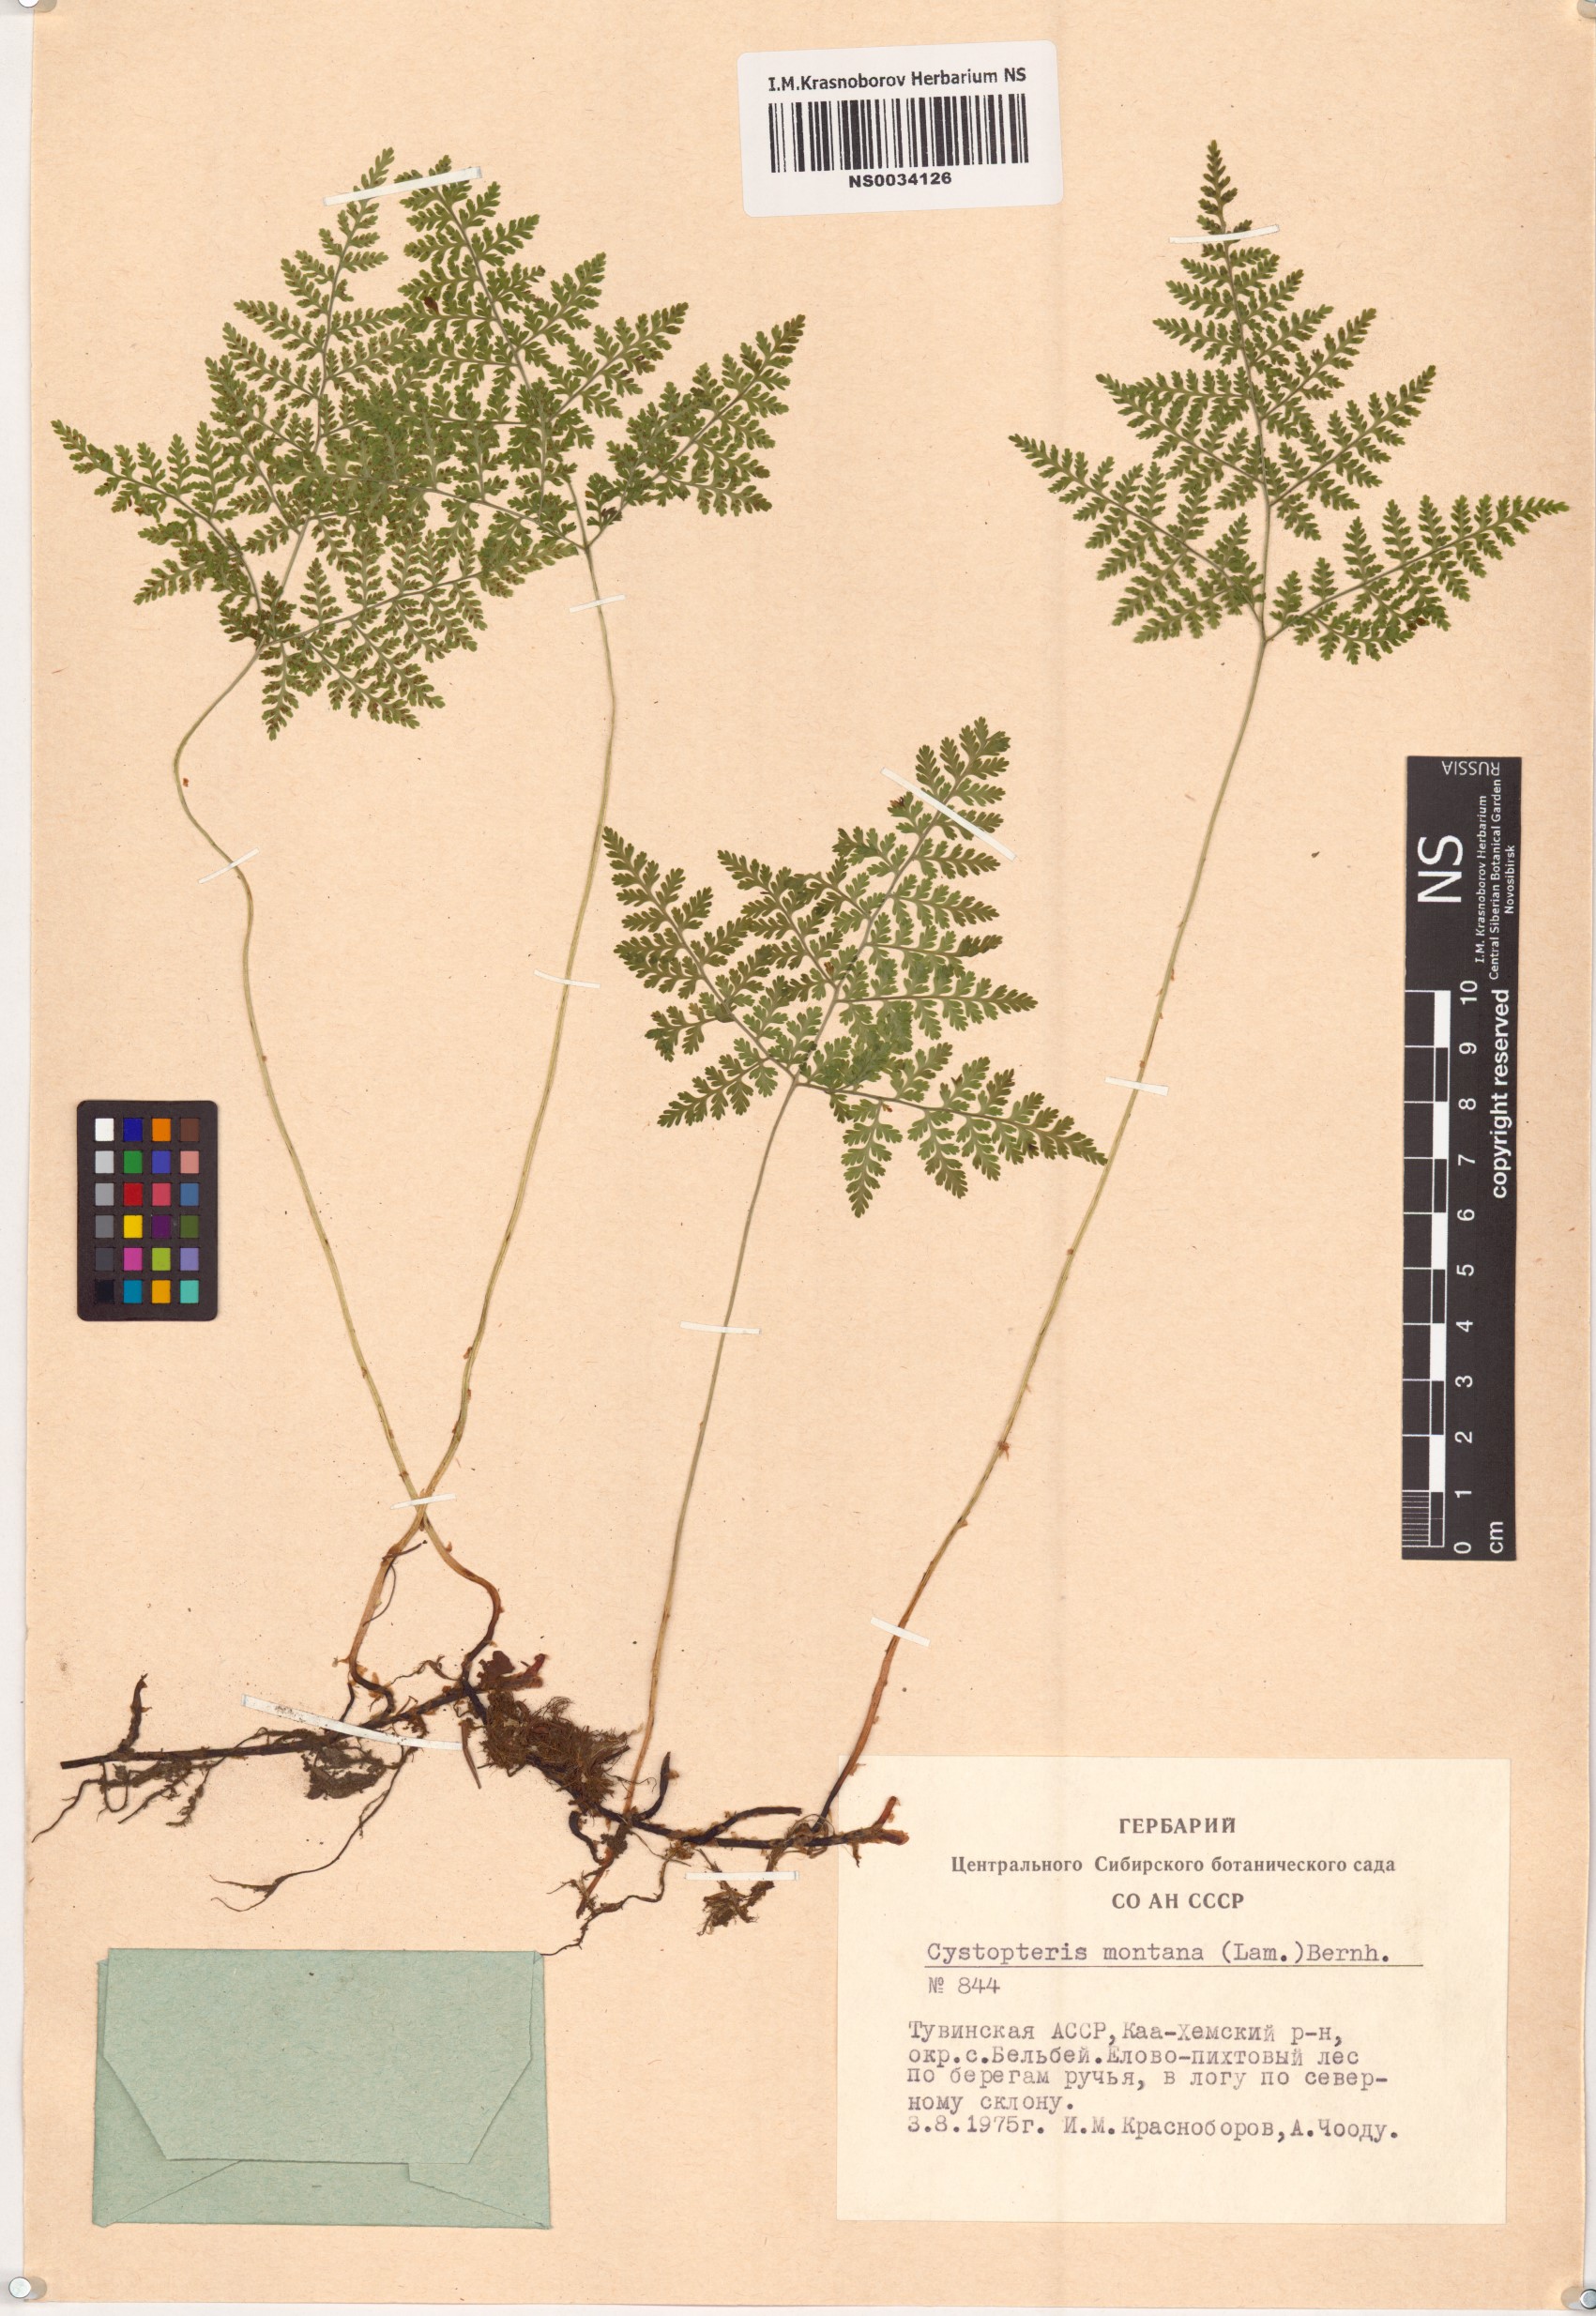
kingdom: Plantae
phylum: Tracheophyta
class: Polypodiopsida
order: Polypodiales
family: Cystopteridaceae
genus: Cystopteris
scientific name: Cystopteris montana
